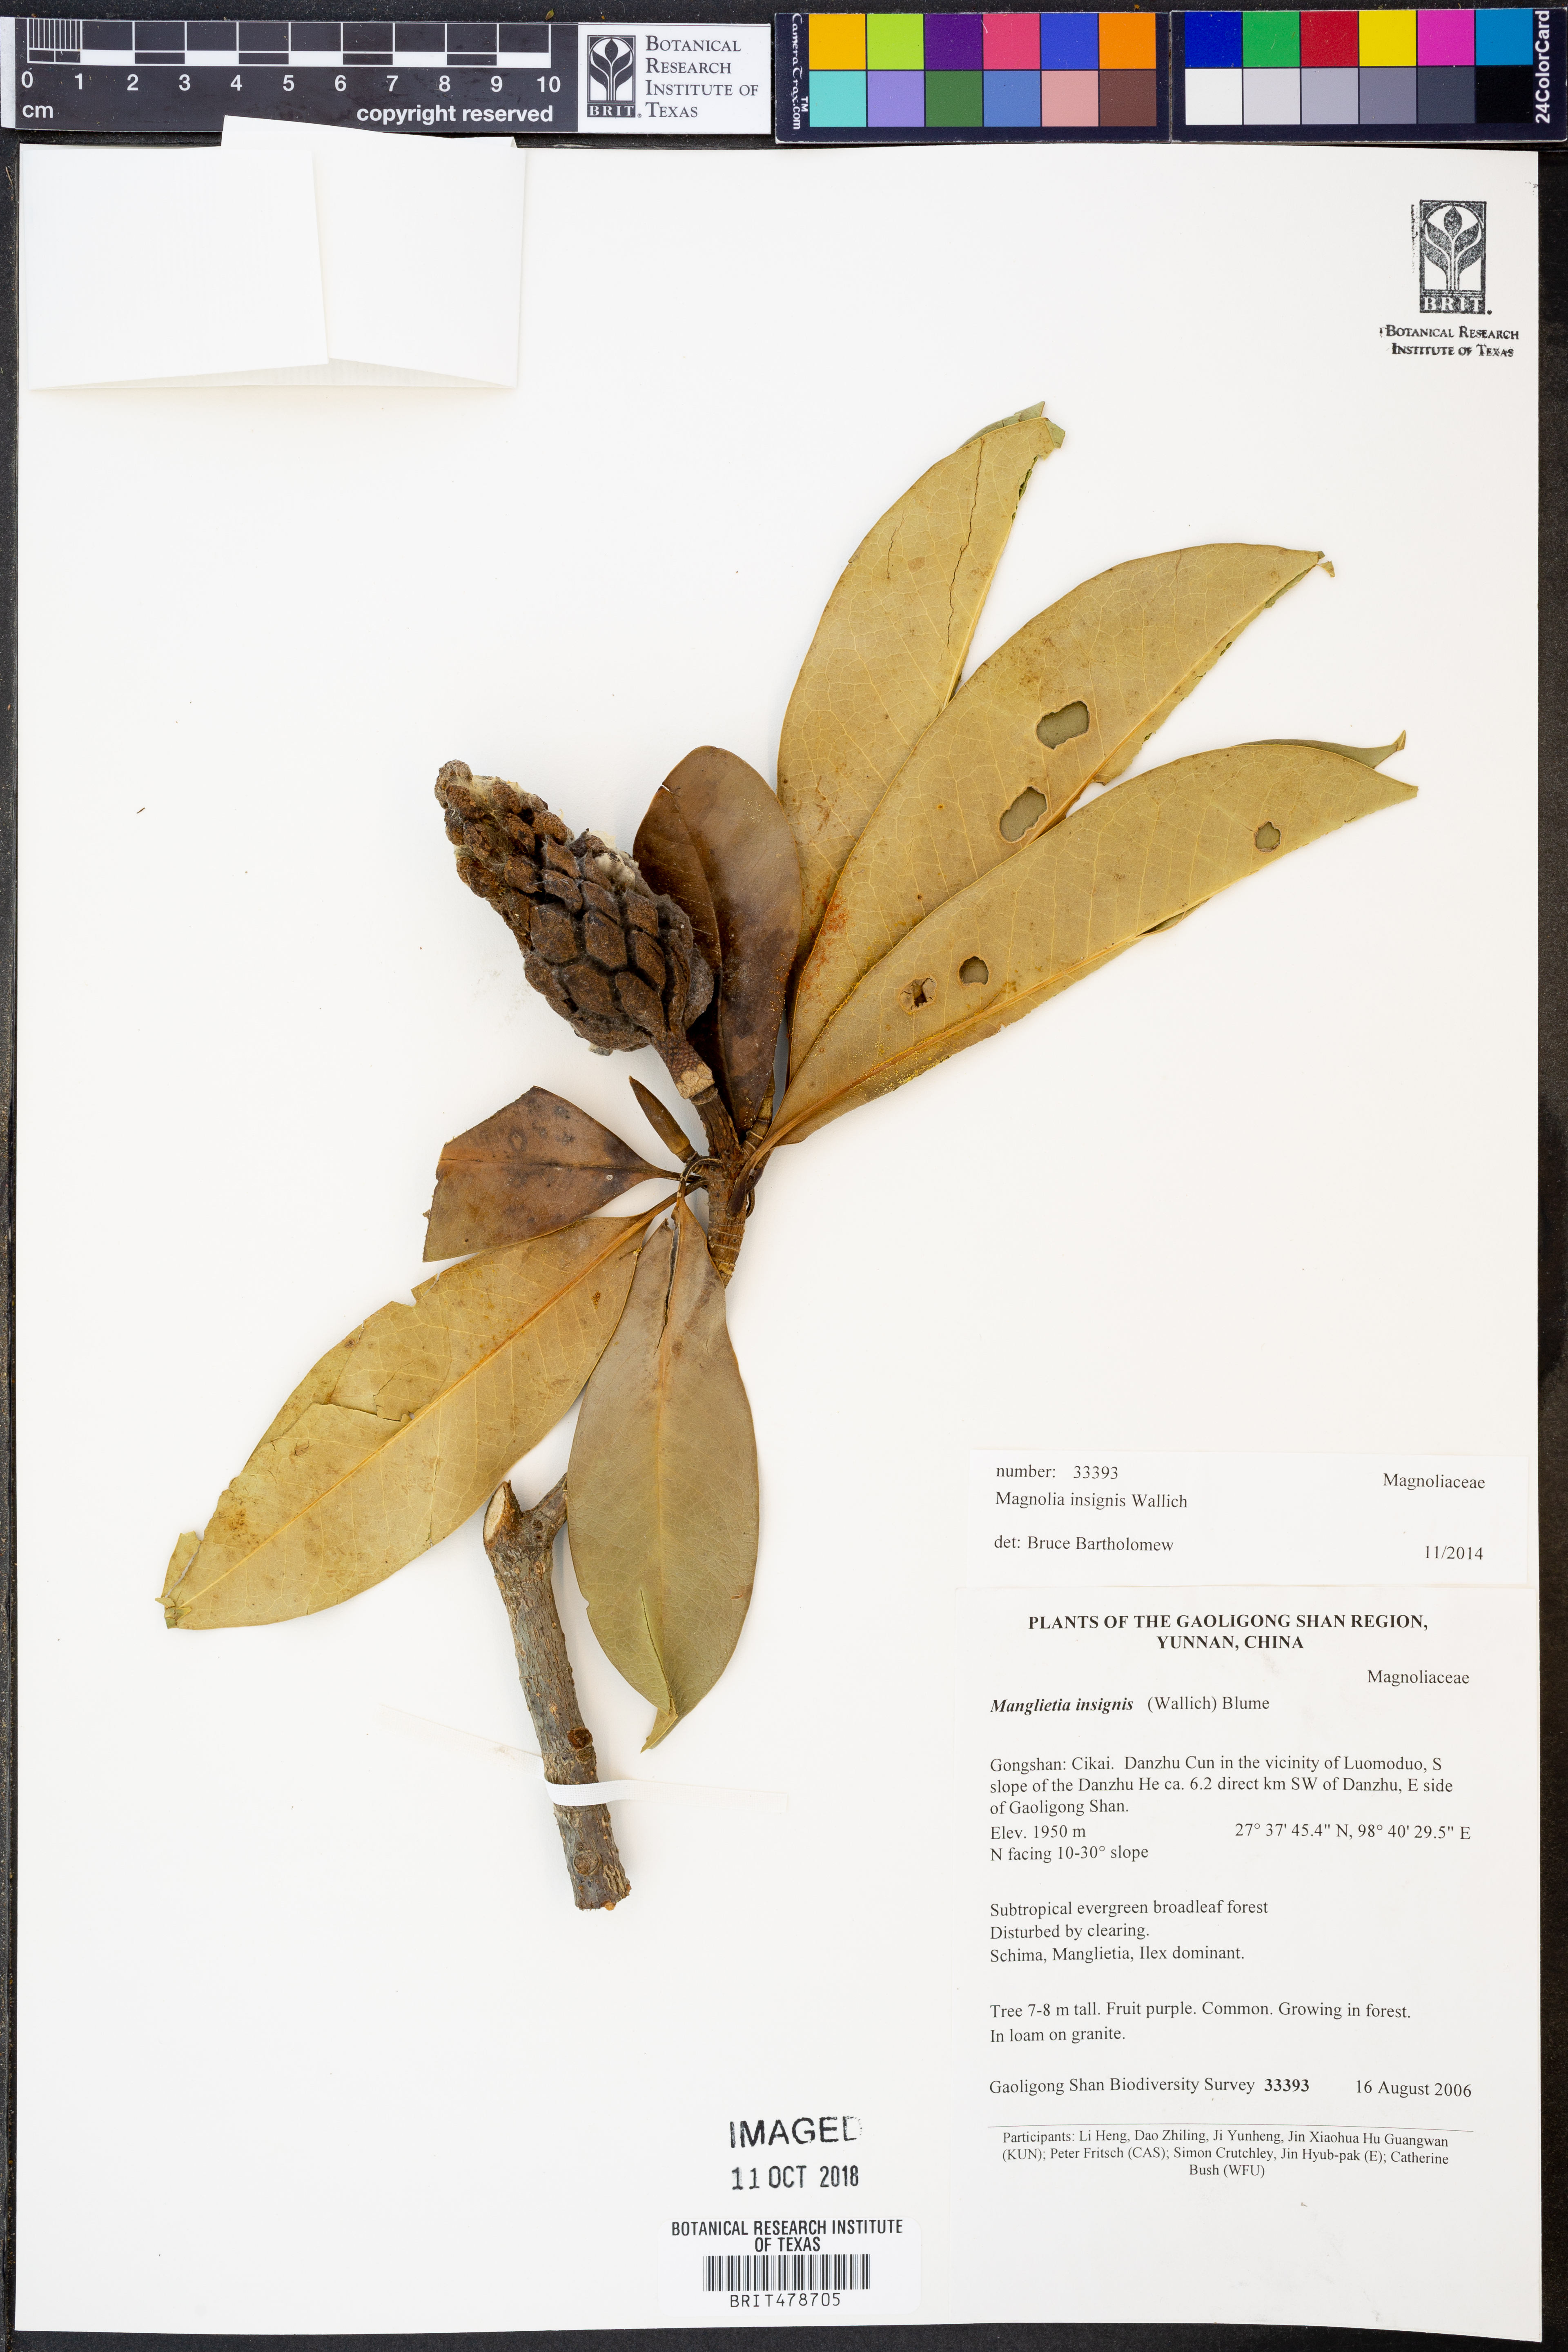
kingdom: Plantae
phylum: Tracheophyta
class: Magnoliopsida
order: Magnoliales
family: Magnoliaceae
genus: Magnolia
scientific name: Magnolia insignis
